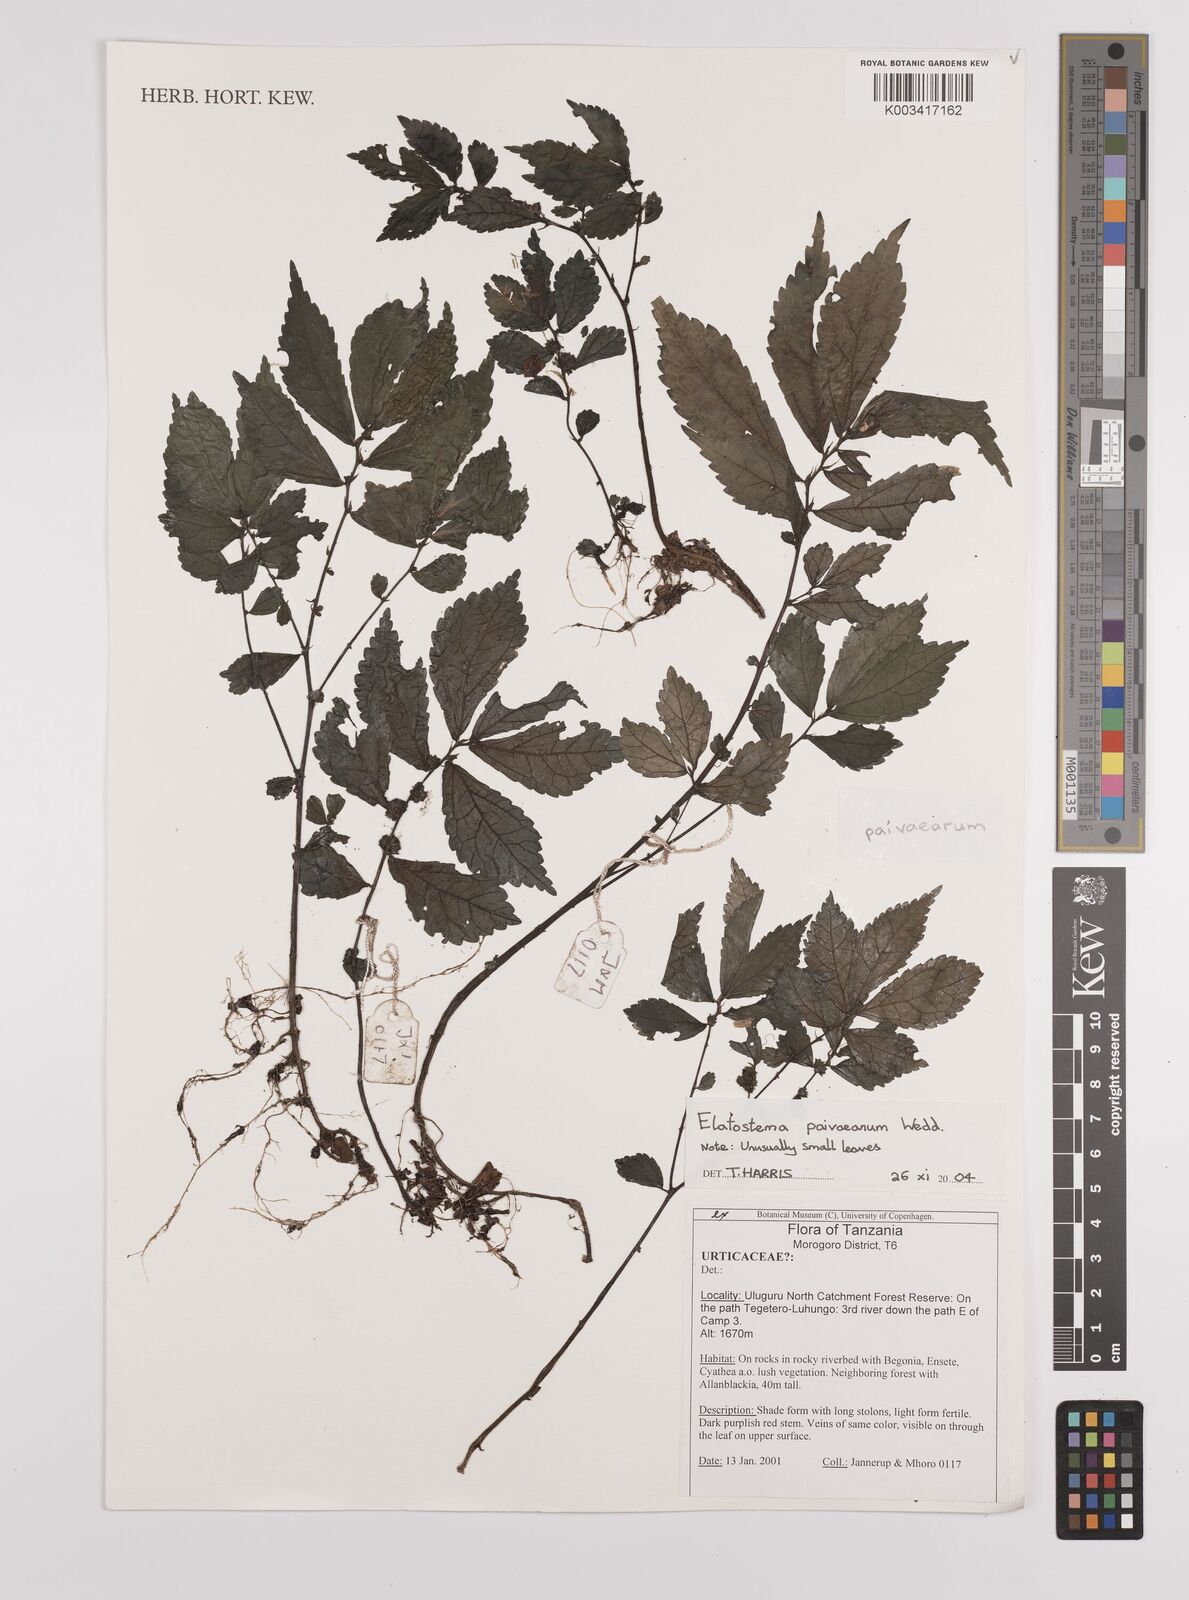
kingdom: Plantae
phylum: Tracheophyta
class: Magnoliopsida
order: Rosales
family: Urticaceae
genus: Elatostema
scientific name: Elatostema paivaeanum
